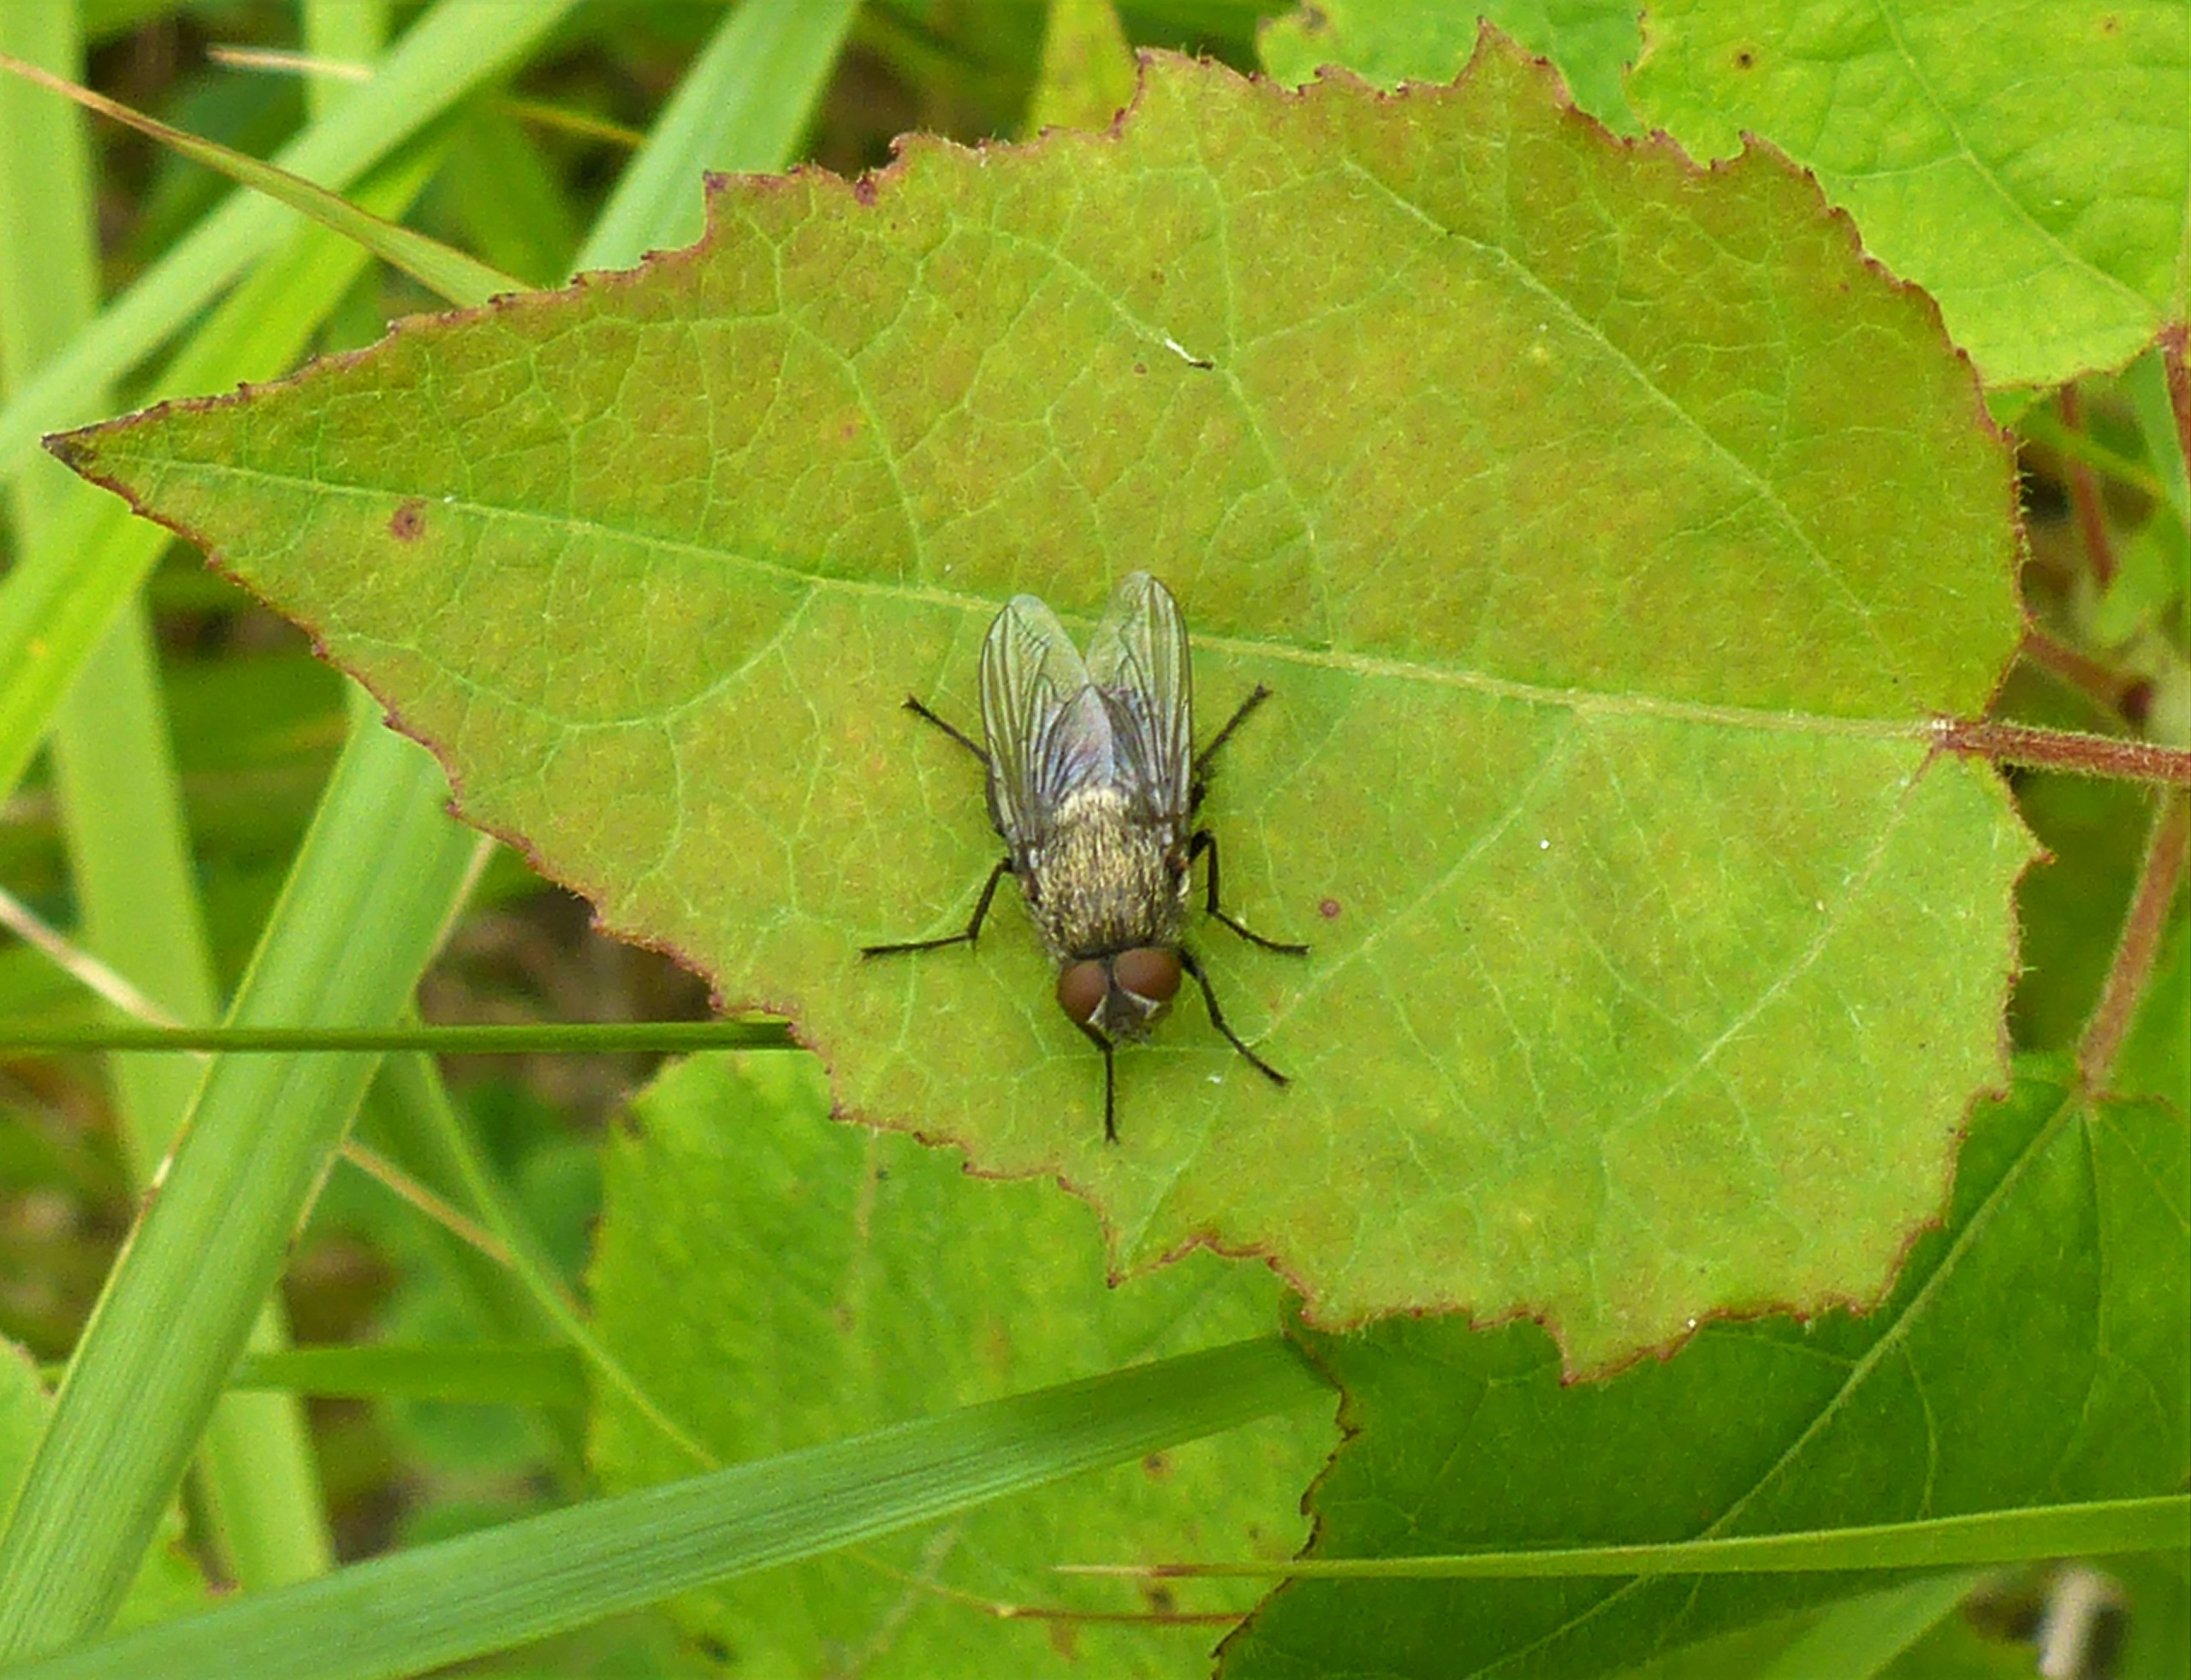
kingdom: Animalia
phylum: Arthropoda
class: Insecta
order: Diptera
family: Polleniidae
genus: Pollenia
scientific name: Pollenia
